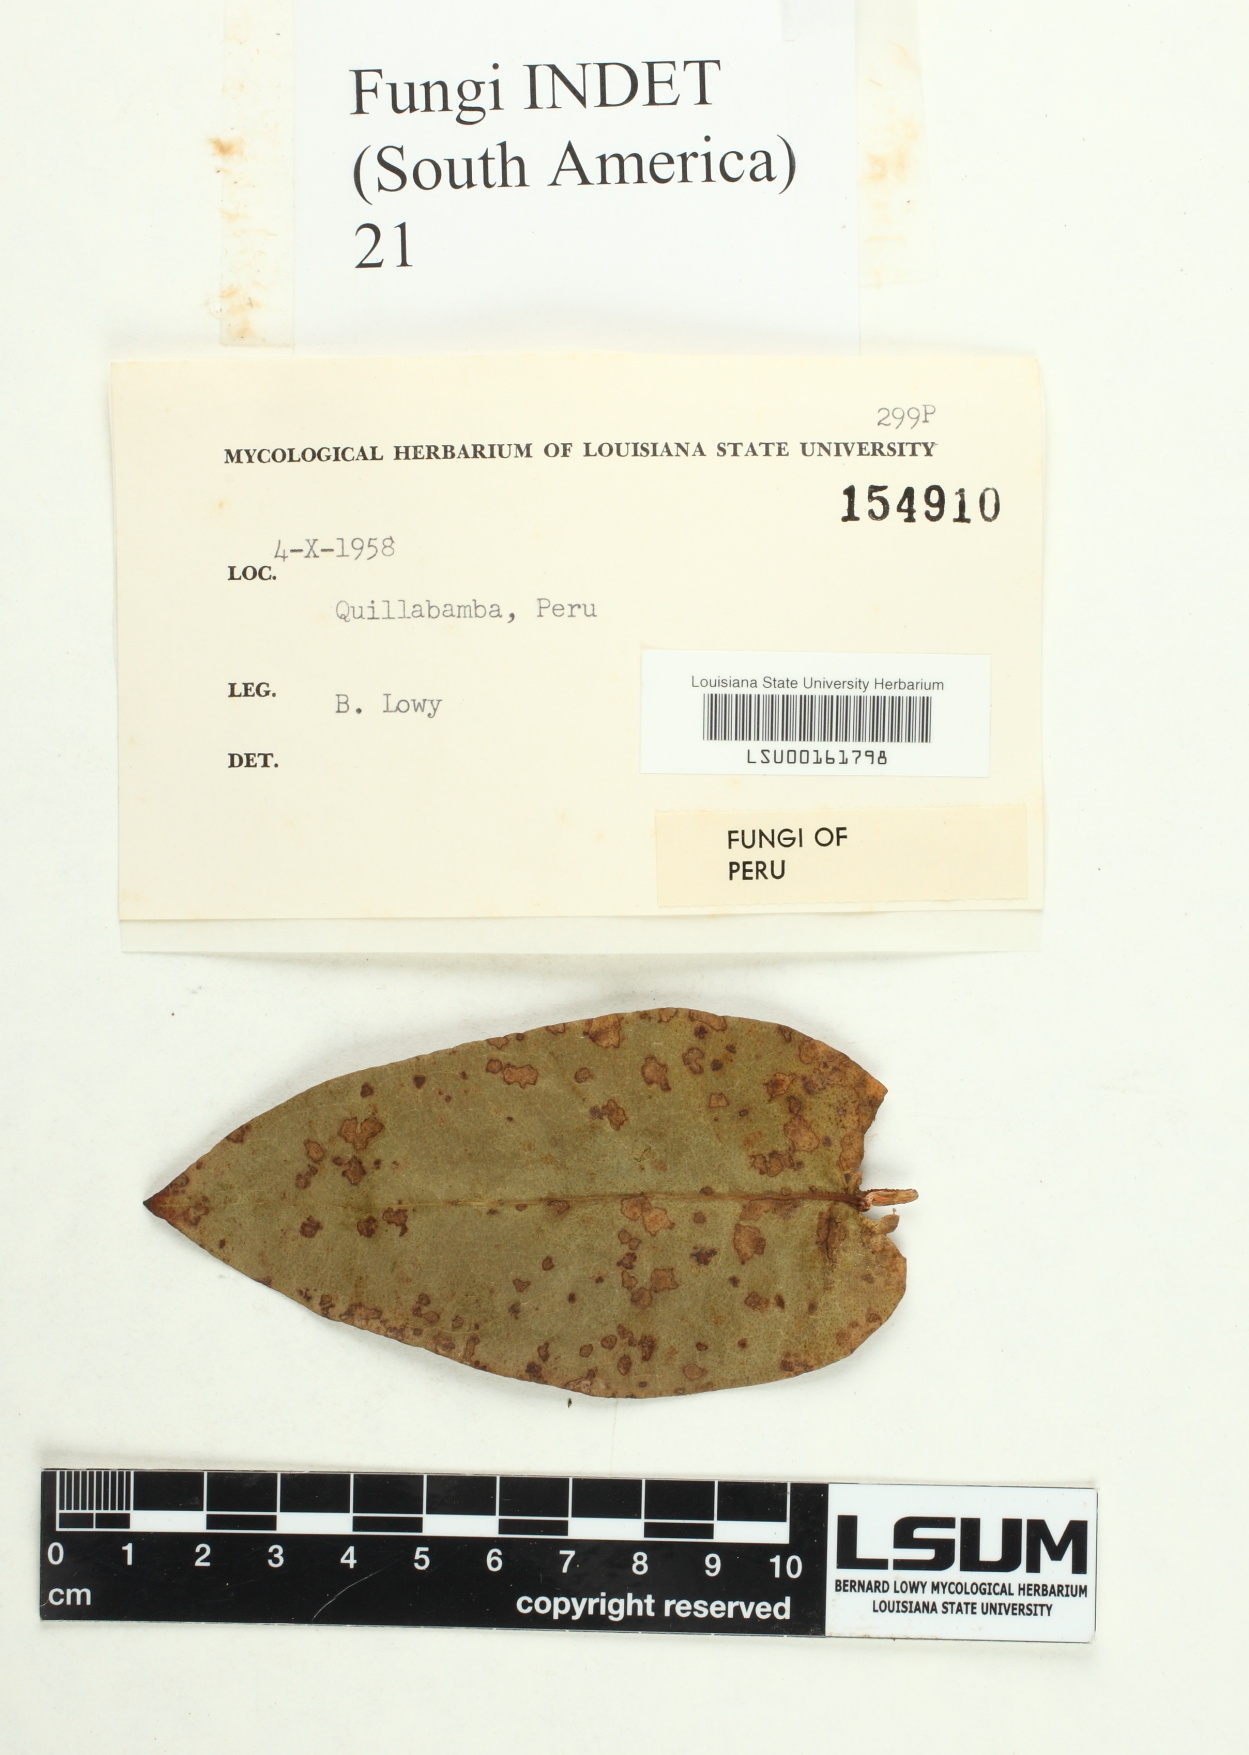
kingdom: Fungi
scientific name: Fungi
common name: Fungi
